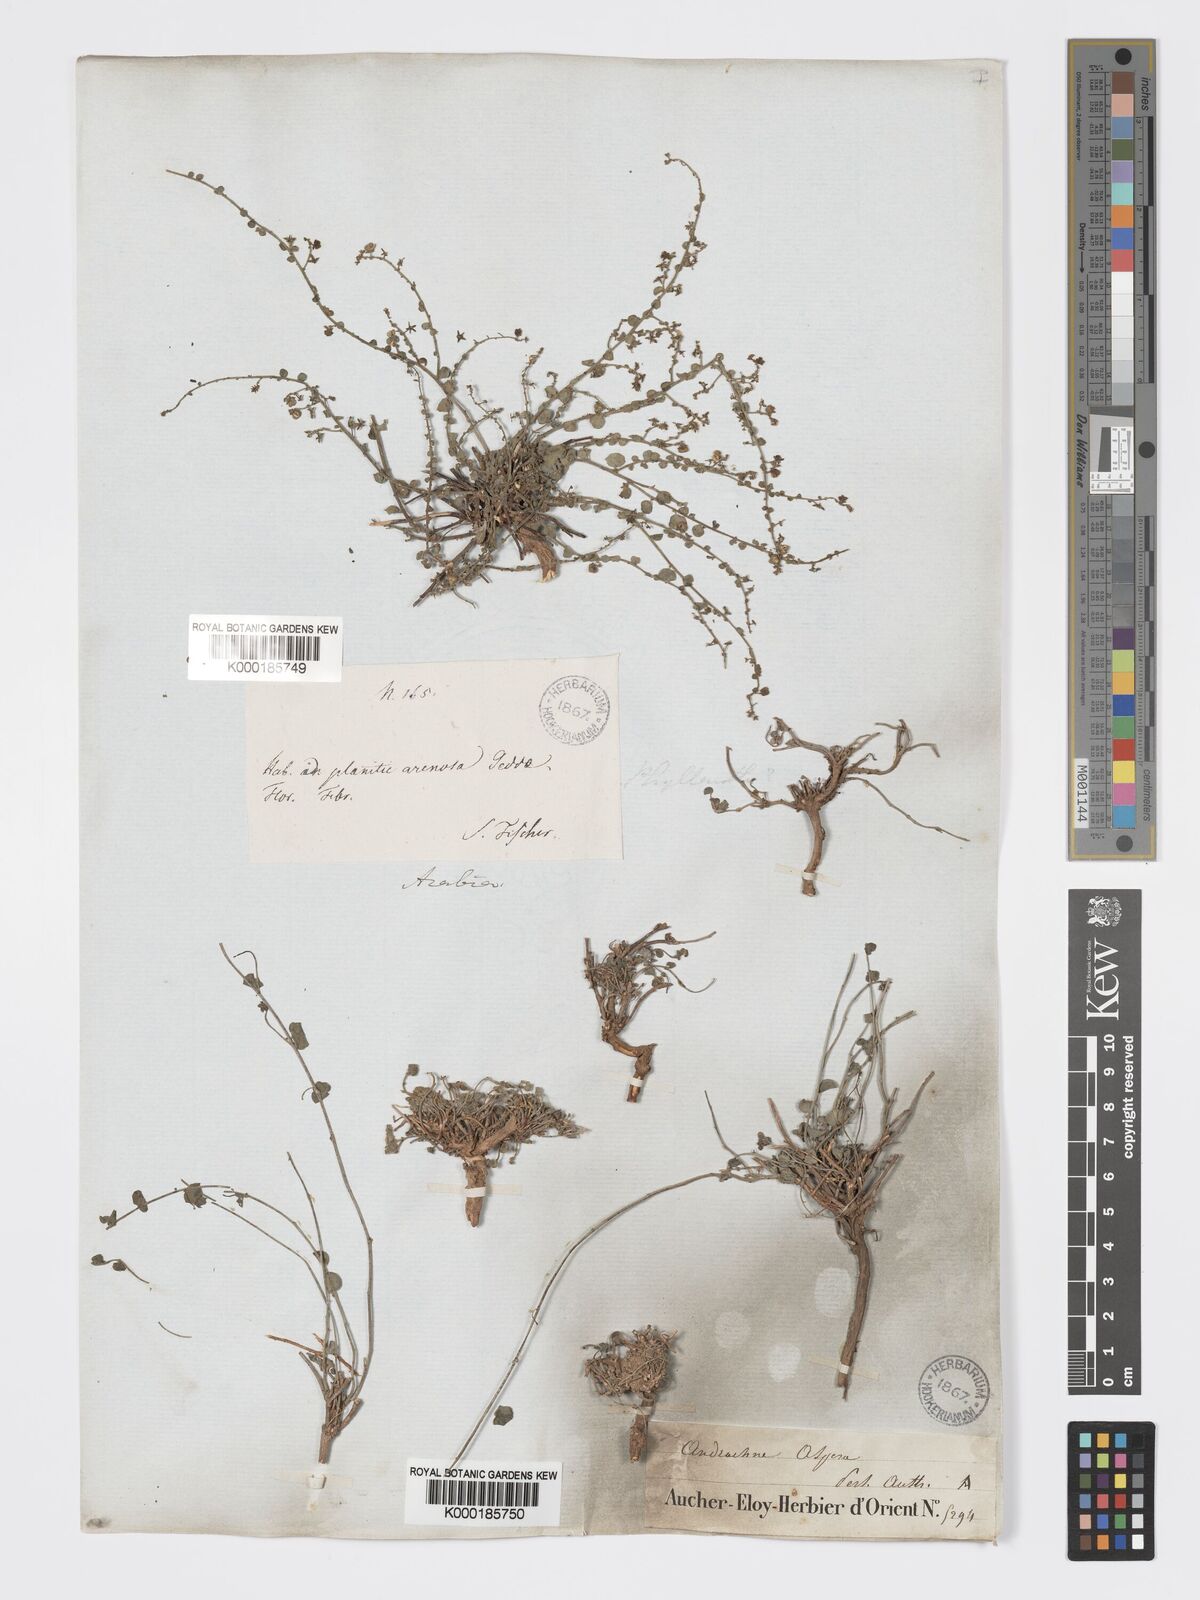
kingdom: Plantae
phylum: Tracheophyta
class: Magnoliopsida
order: Malpighiales
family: Phyllanthaceae
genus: Andrachne
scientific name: Andrachne aspera
